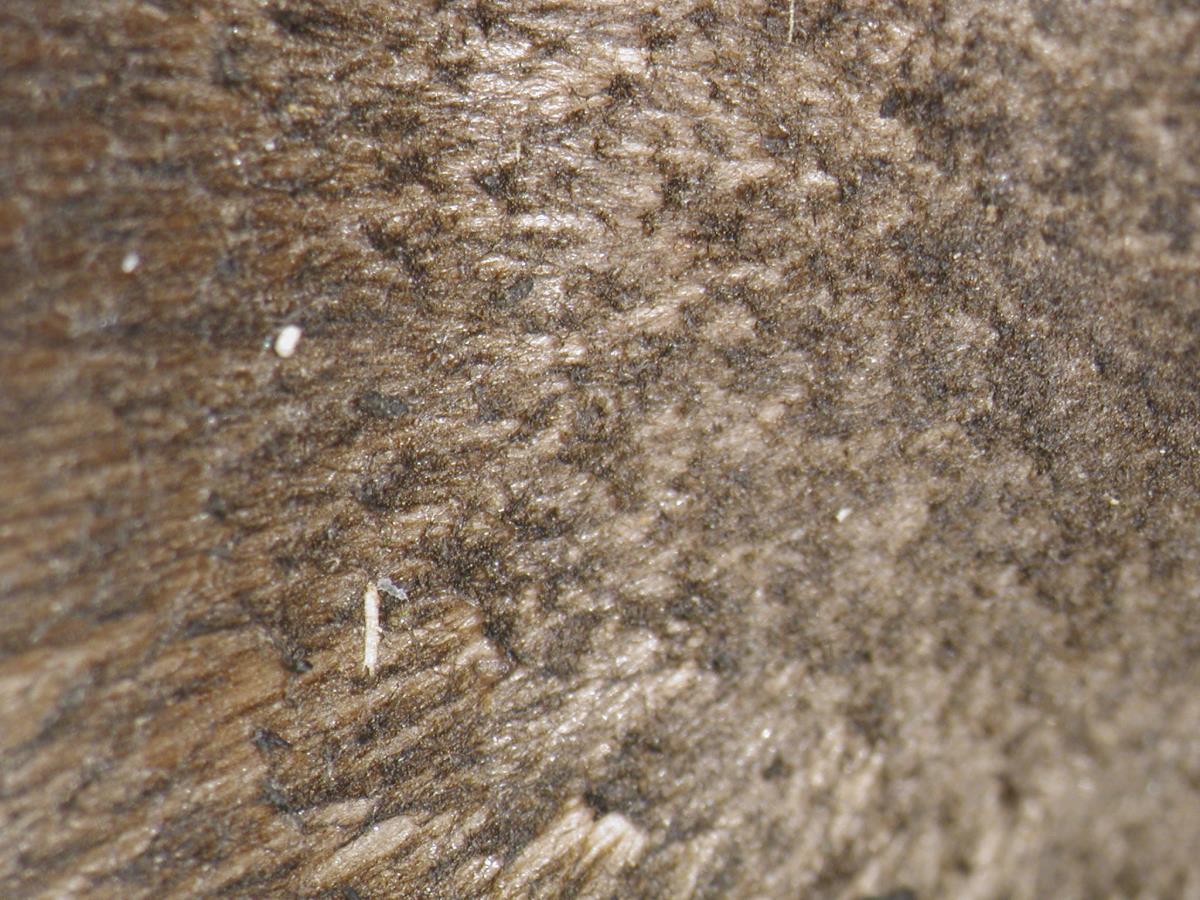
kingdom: Fungi
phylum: Basidiomycota
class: Agaricomycetes
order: Agaricales
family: Entolomataceae
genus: Entoloma
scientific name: Entoloma
